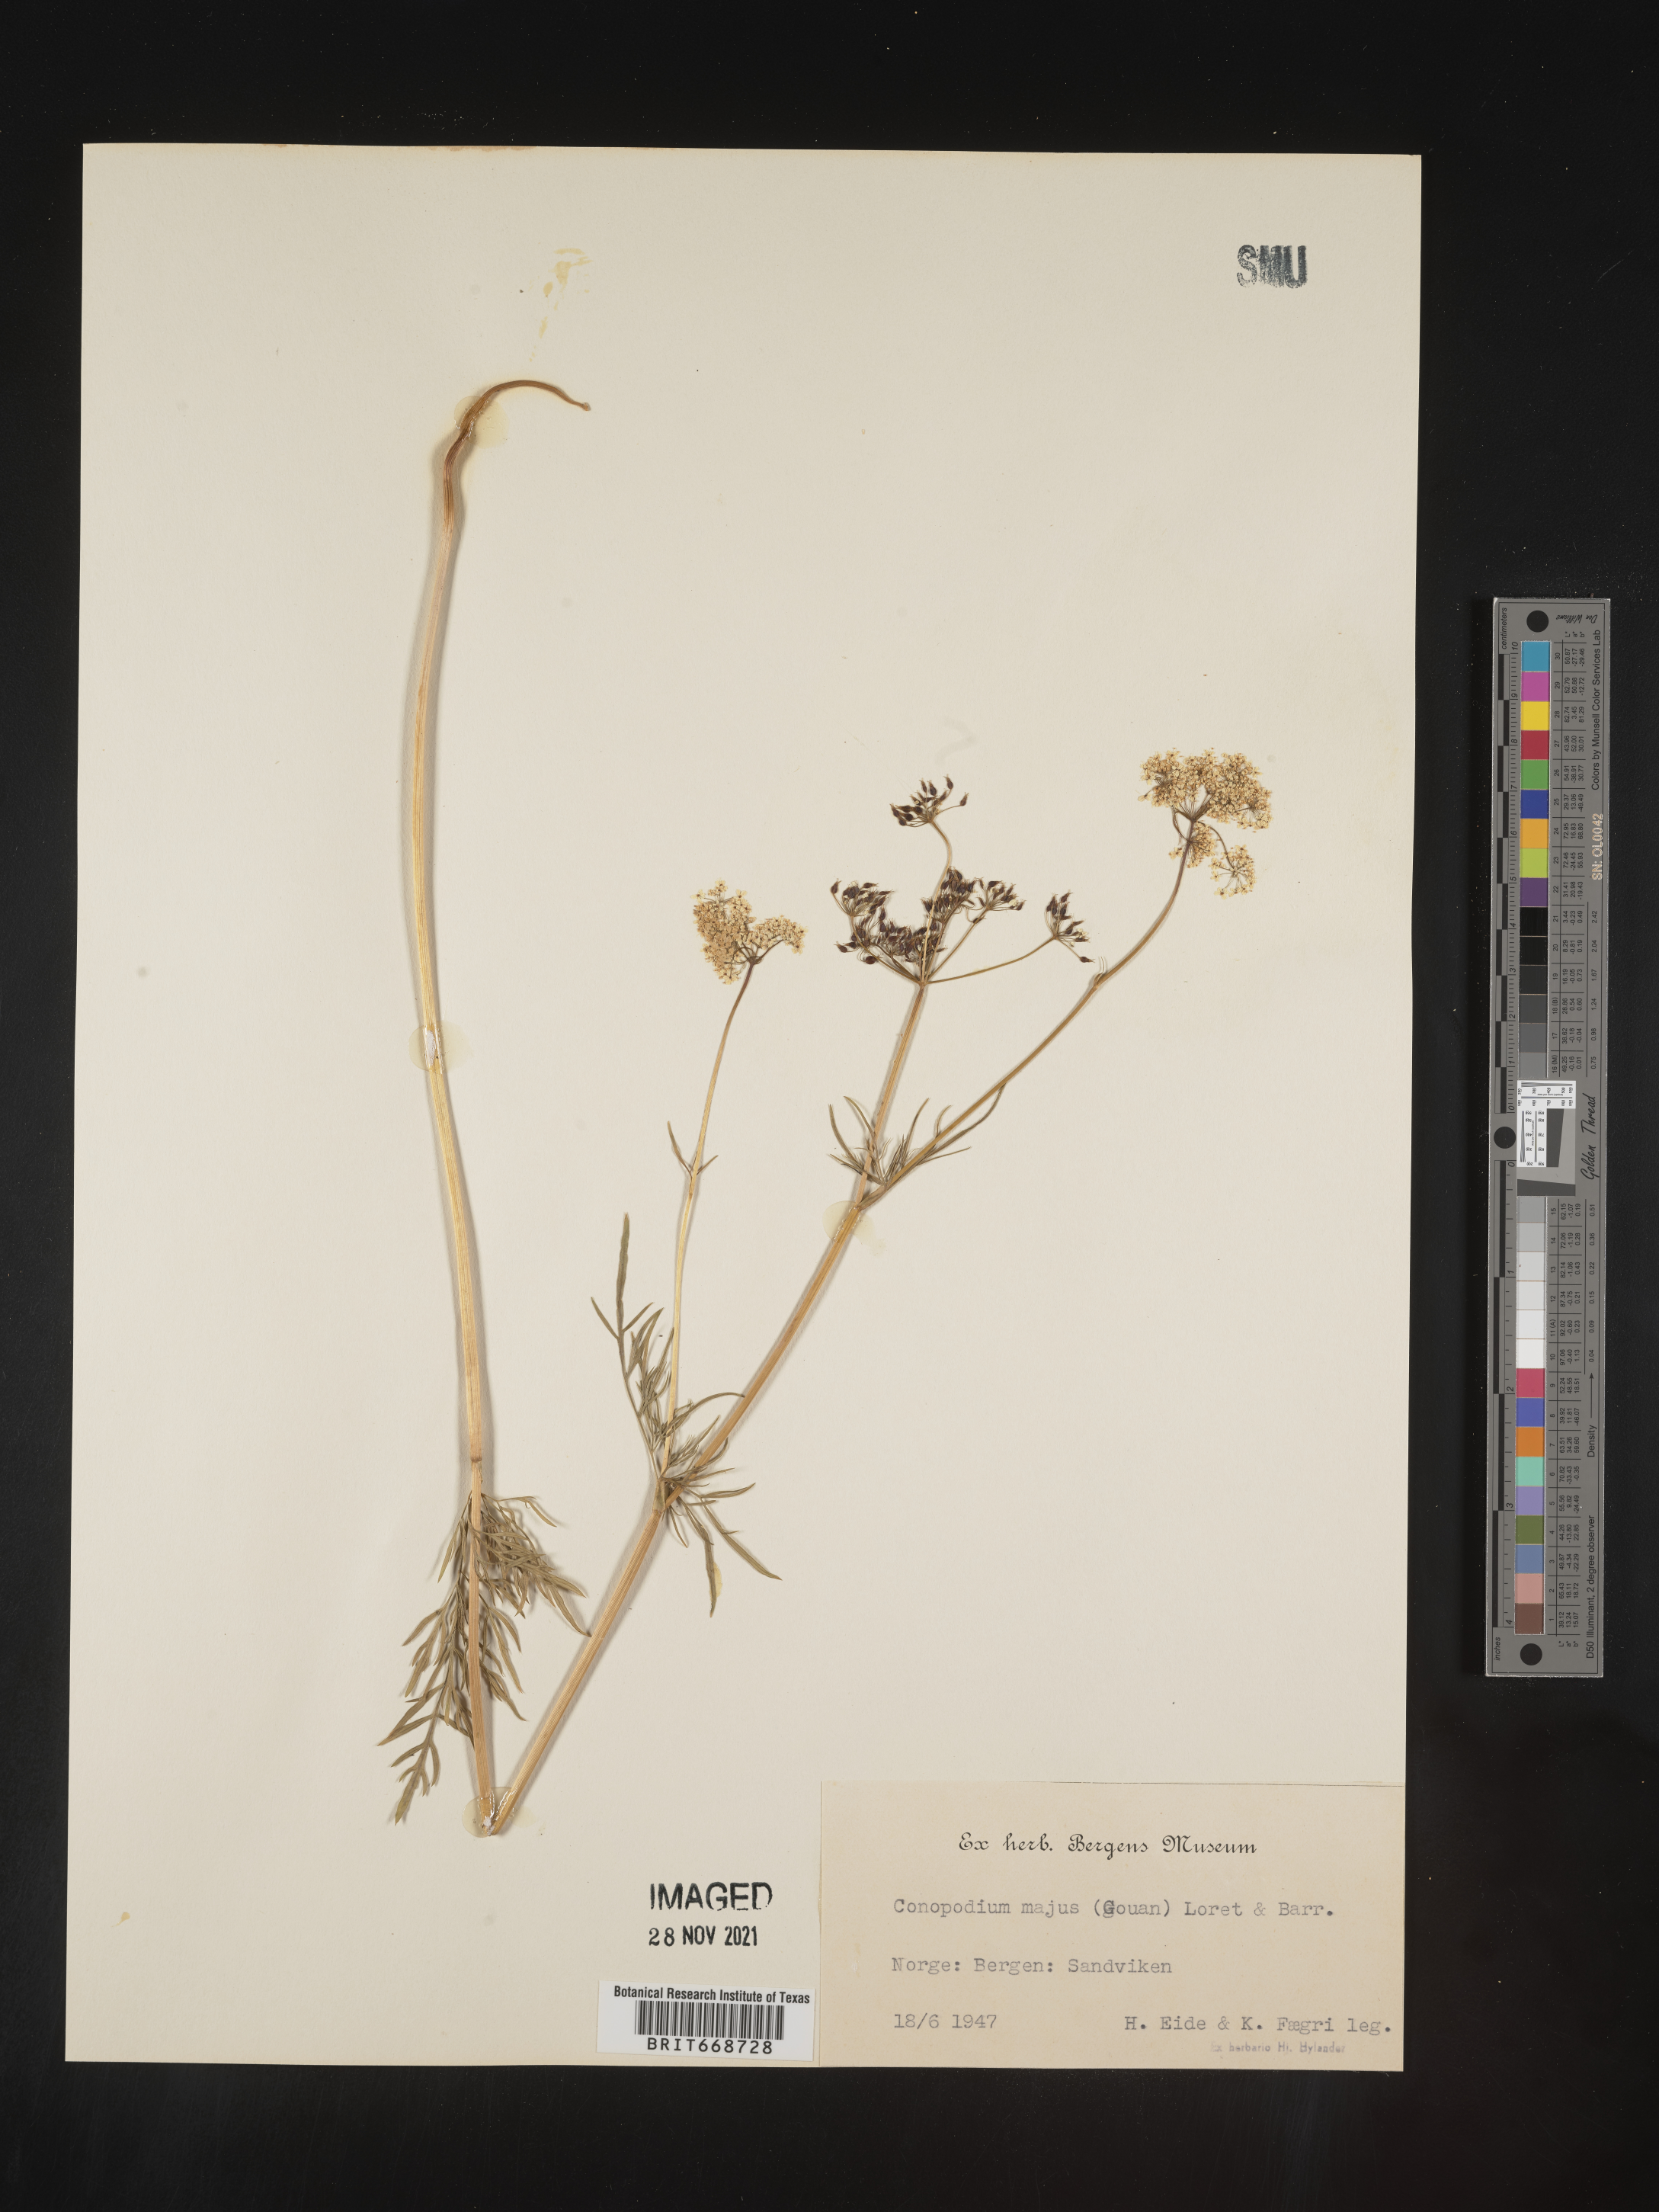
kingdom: Plantae
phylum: Tracheophyta
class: Magnoliopsida
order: Apiales
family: Apiaceae
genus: Conopodium
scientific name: Conopodium
